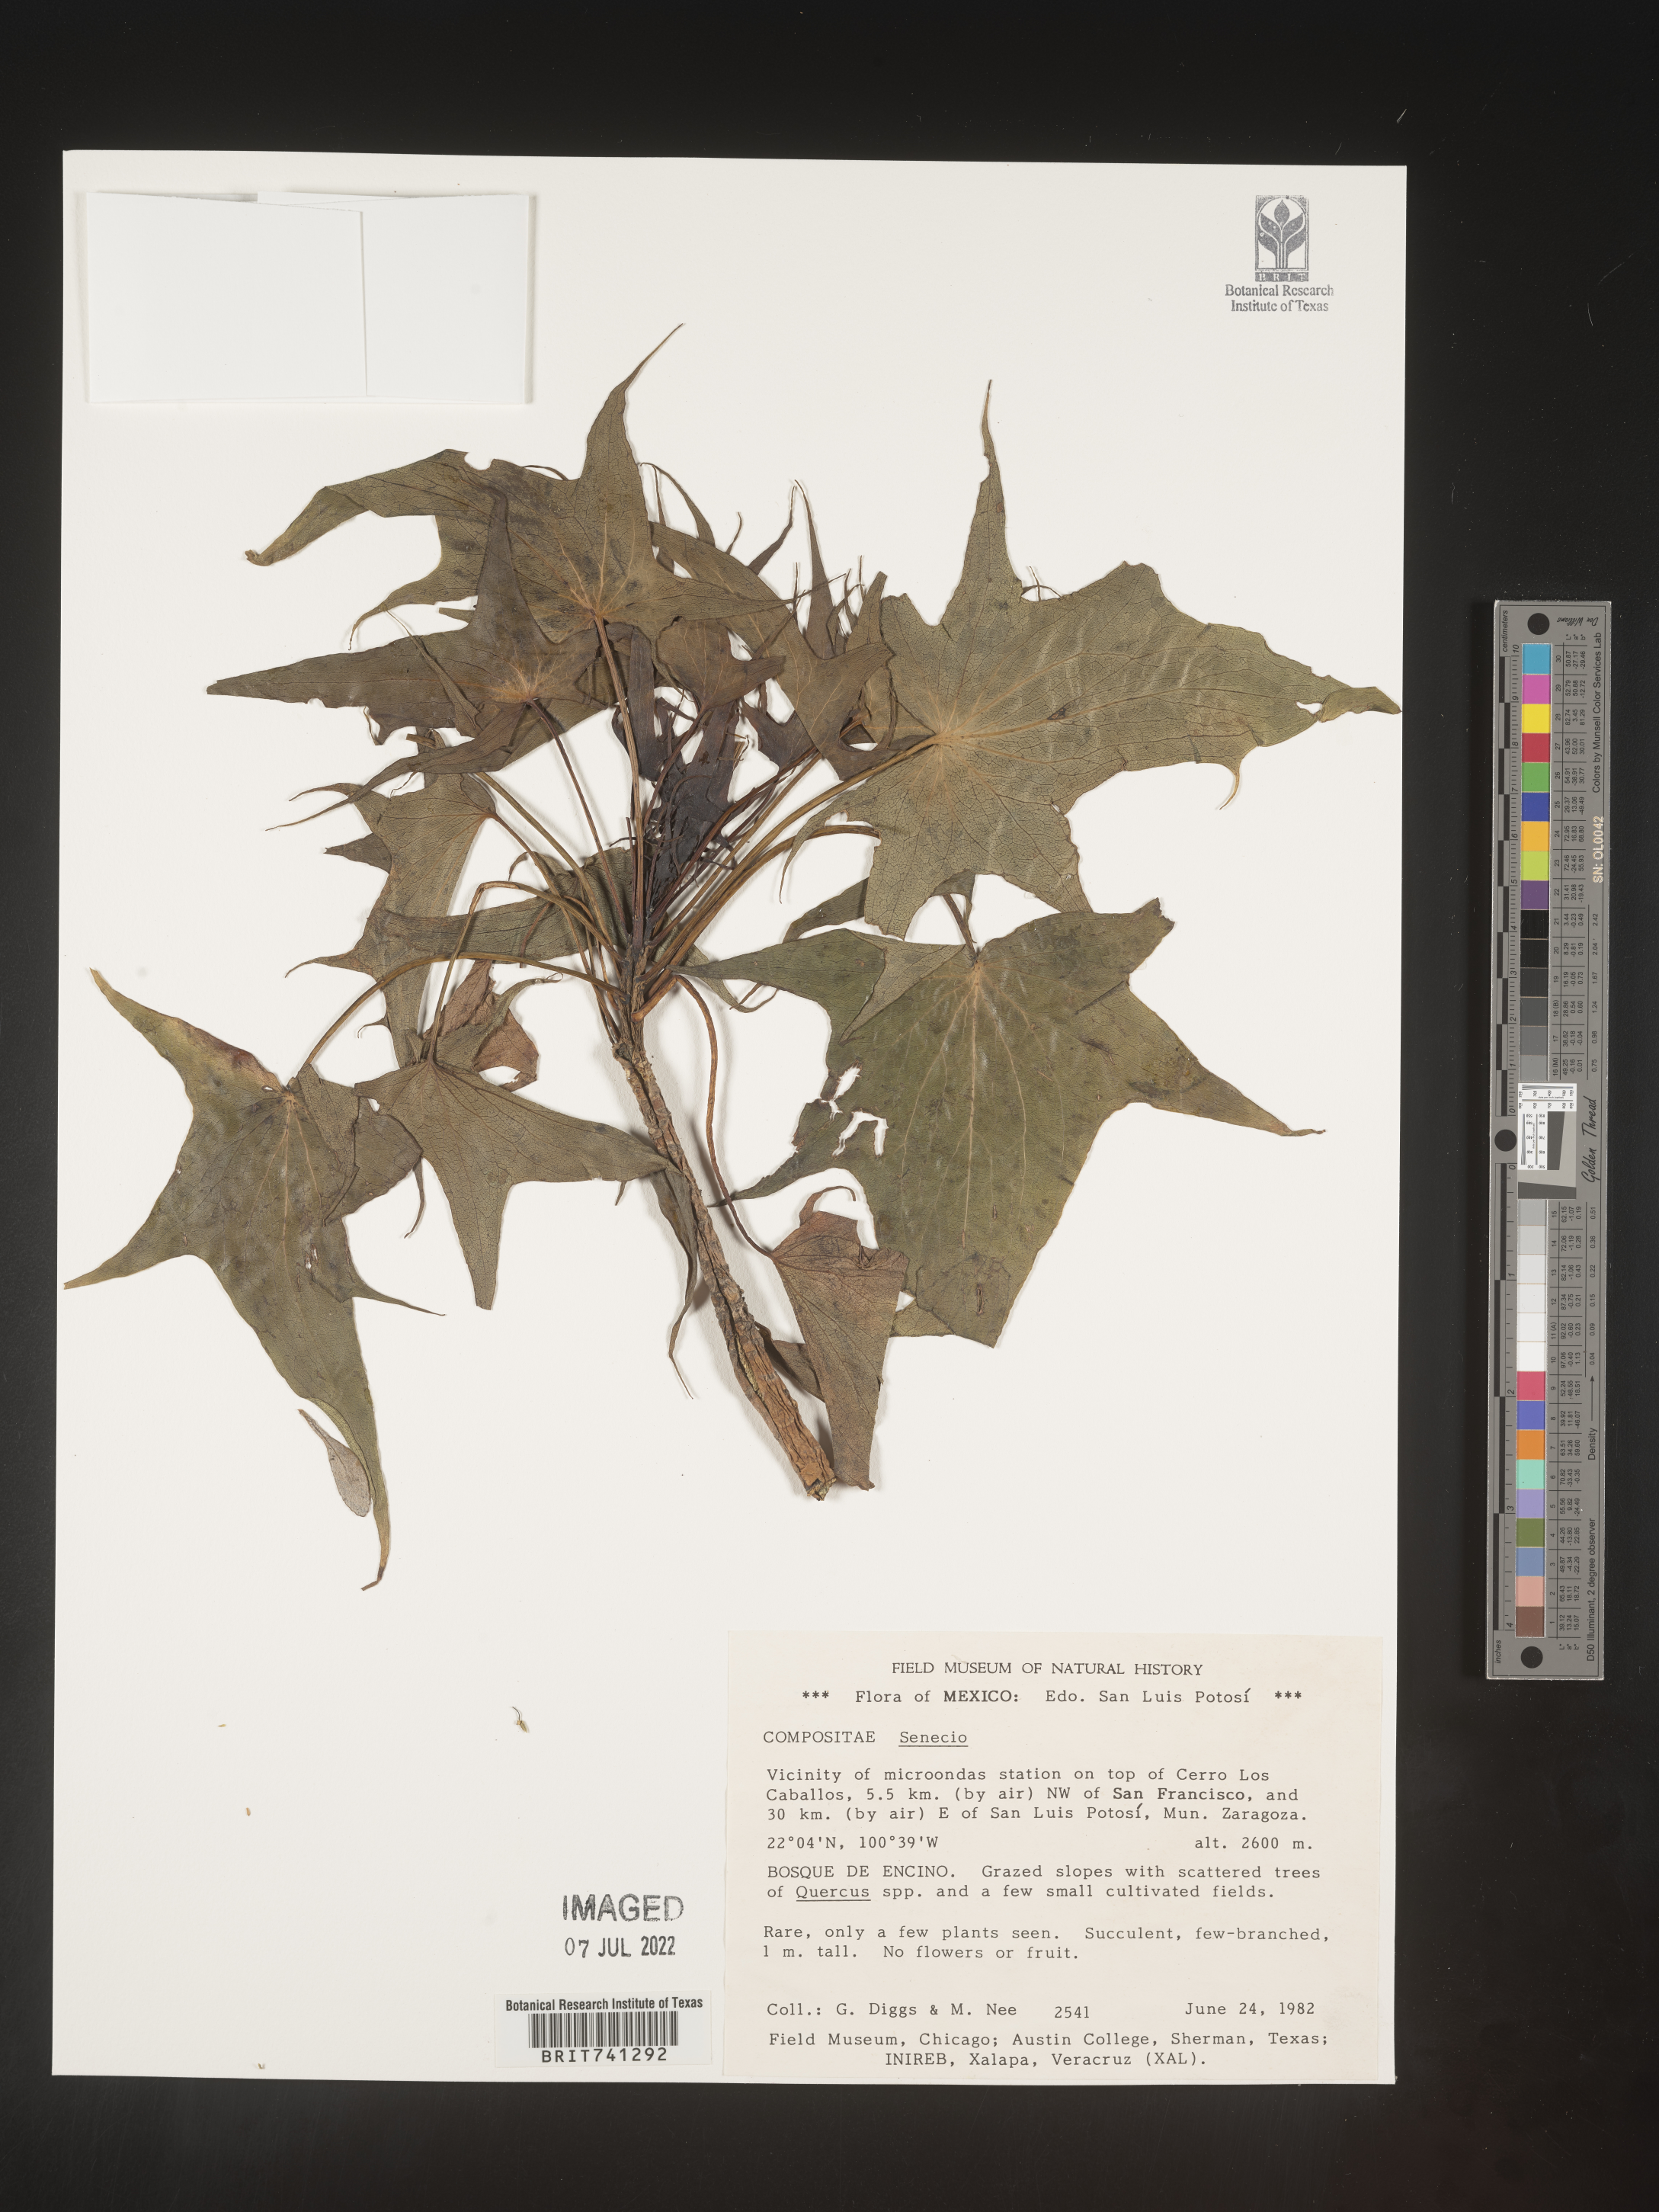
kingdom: Plantae
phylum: Tracheophyta
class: Magnoliopsida
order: Asterales
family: Asteraceae
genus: Senecio
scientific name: Senecio
